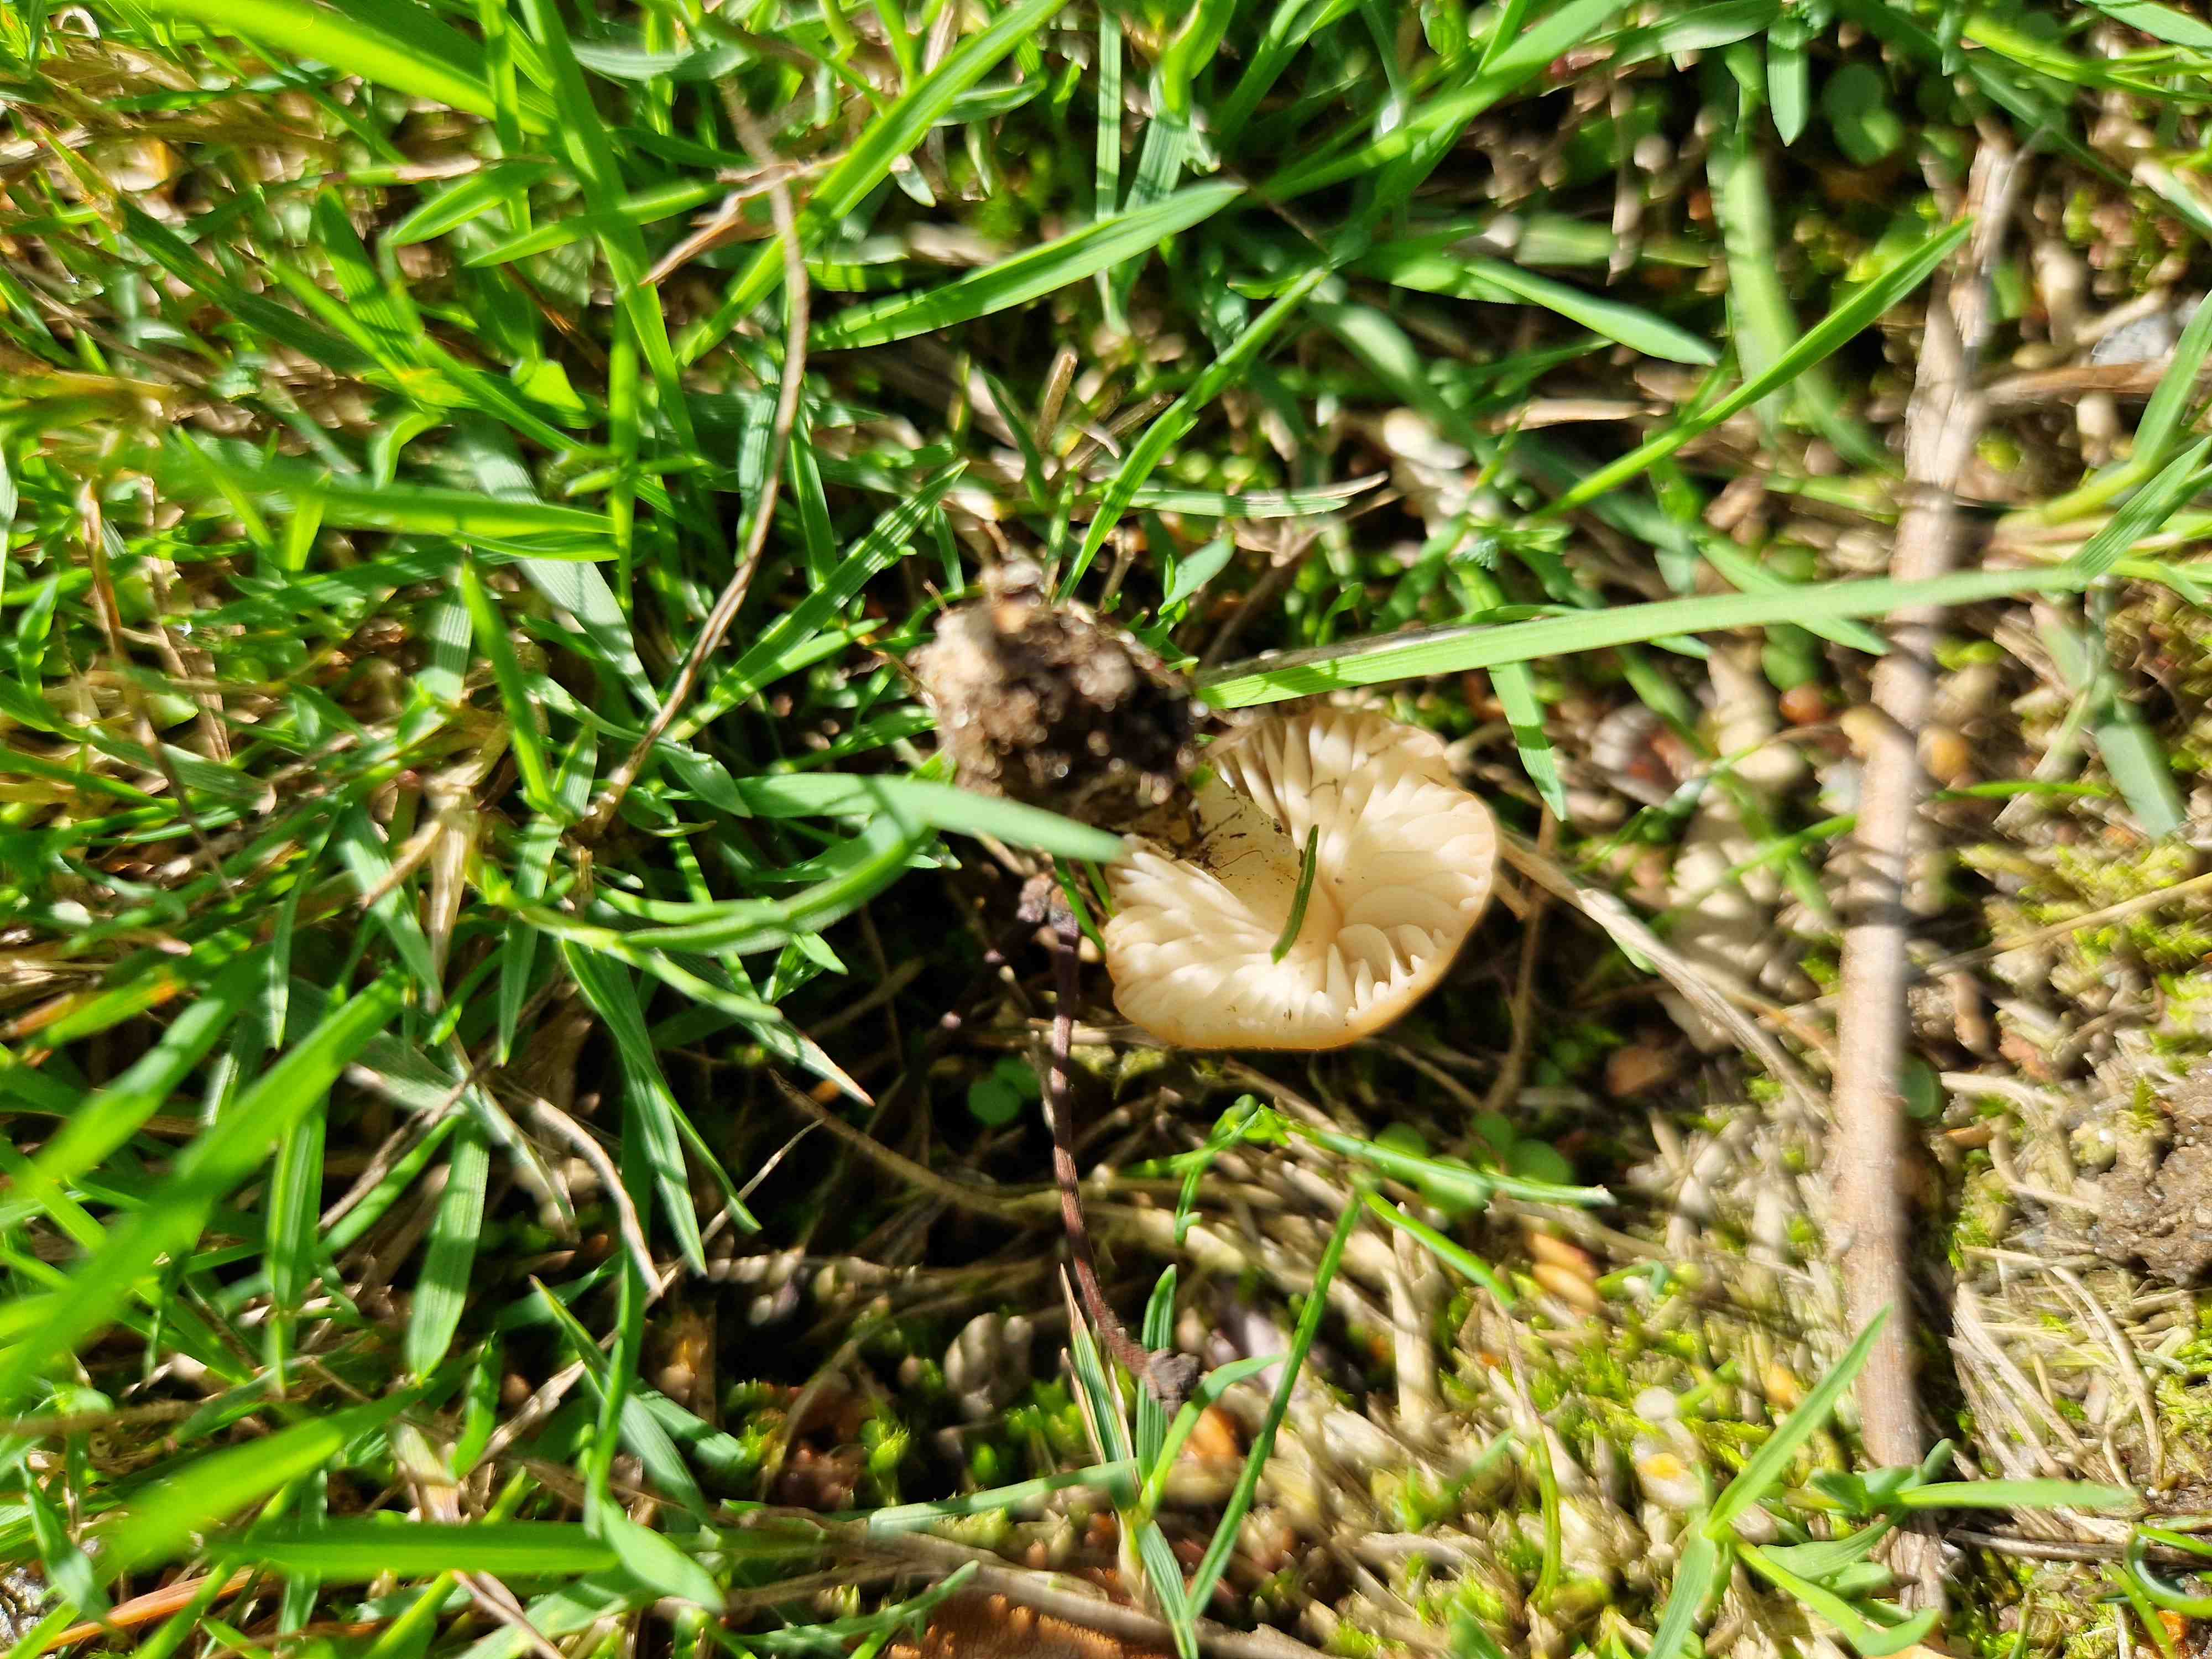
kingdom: Fungi
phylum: Basidiomycota
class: Agaricomycetes
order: Agaricales
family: Marasmiaceae
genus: Marasmius
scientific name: Marasmius oreades
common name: elledans-bruskhat
